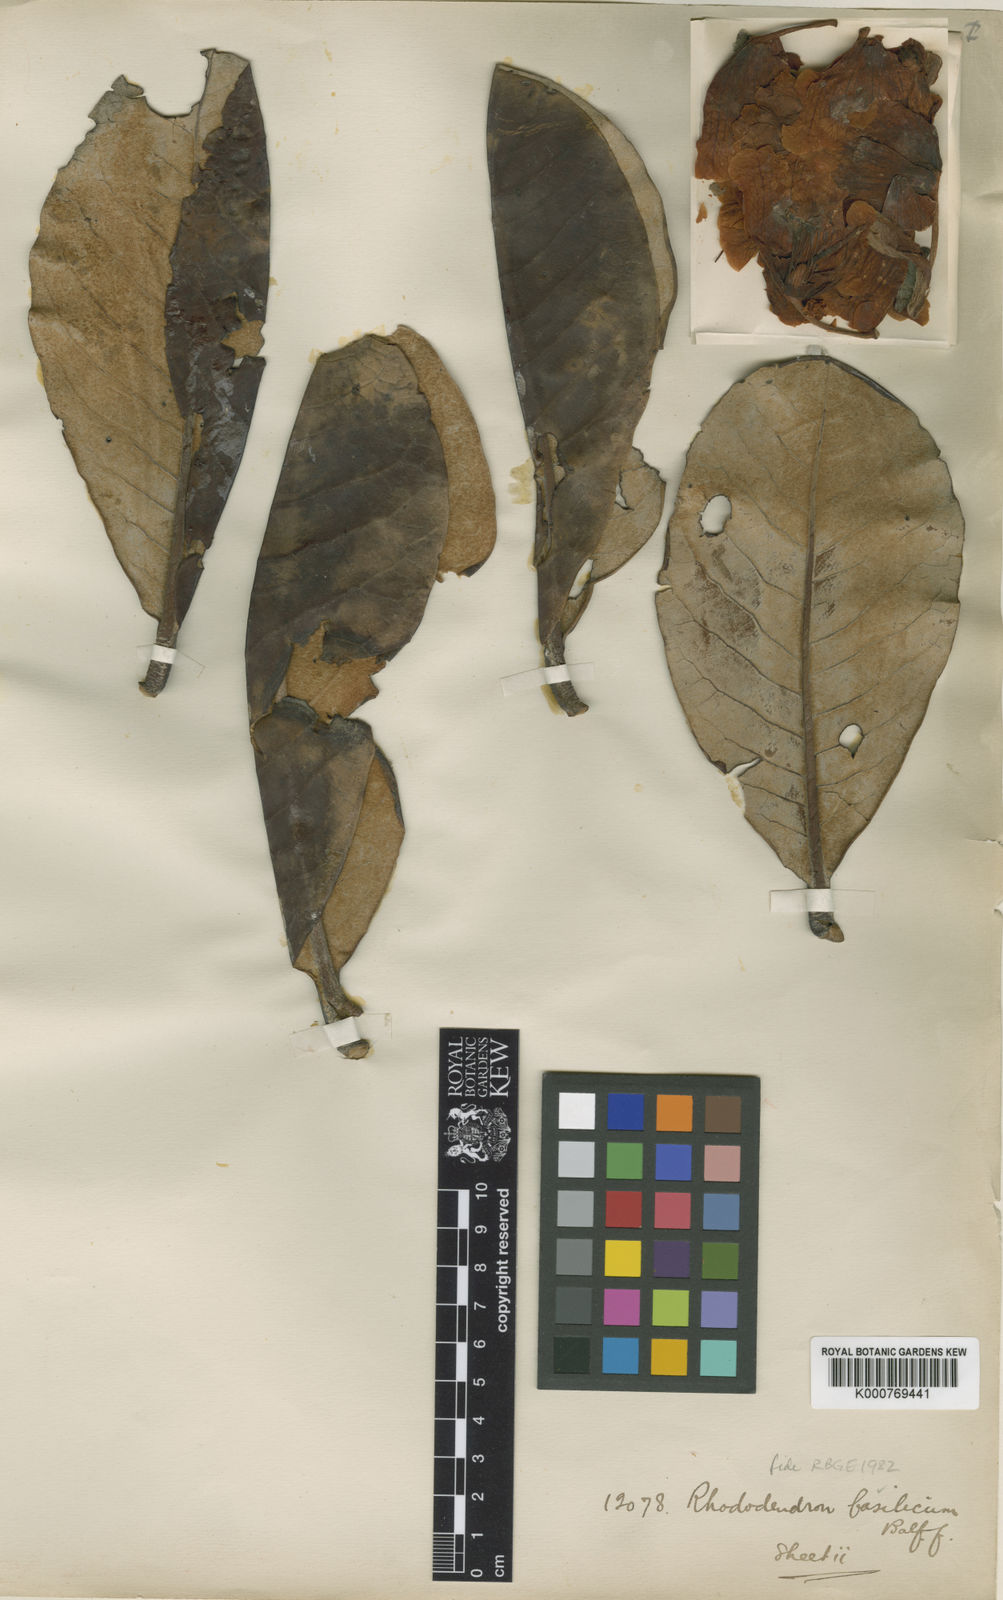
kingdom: Plantae
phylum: Tracheophyta
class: Magnoliopsida
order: Ericales
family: Ericaceae
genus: Rhododendron
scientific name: Rhododendron basilicum
